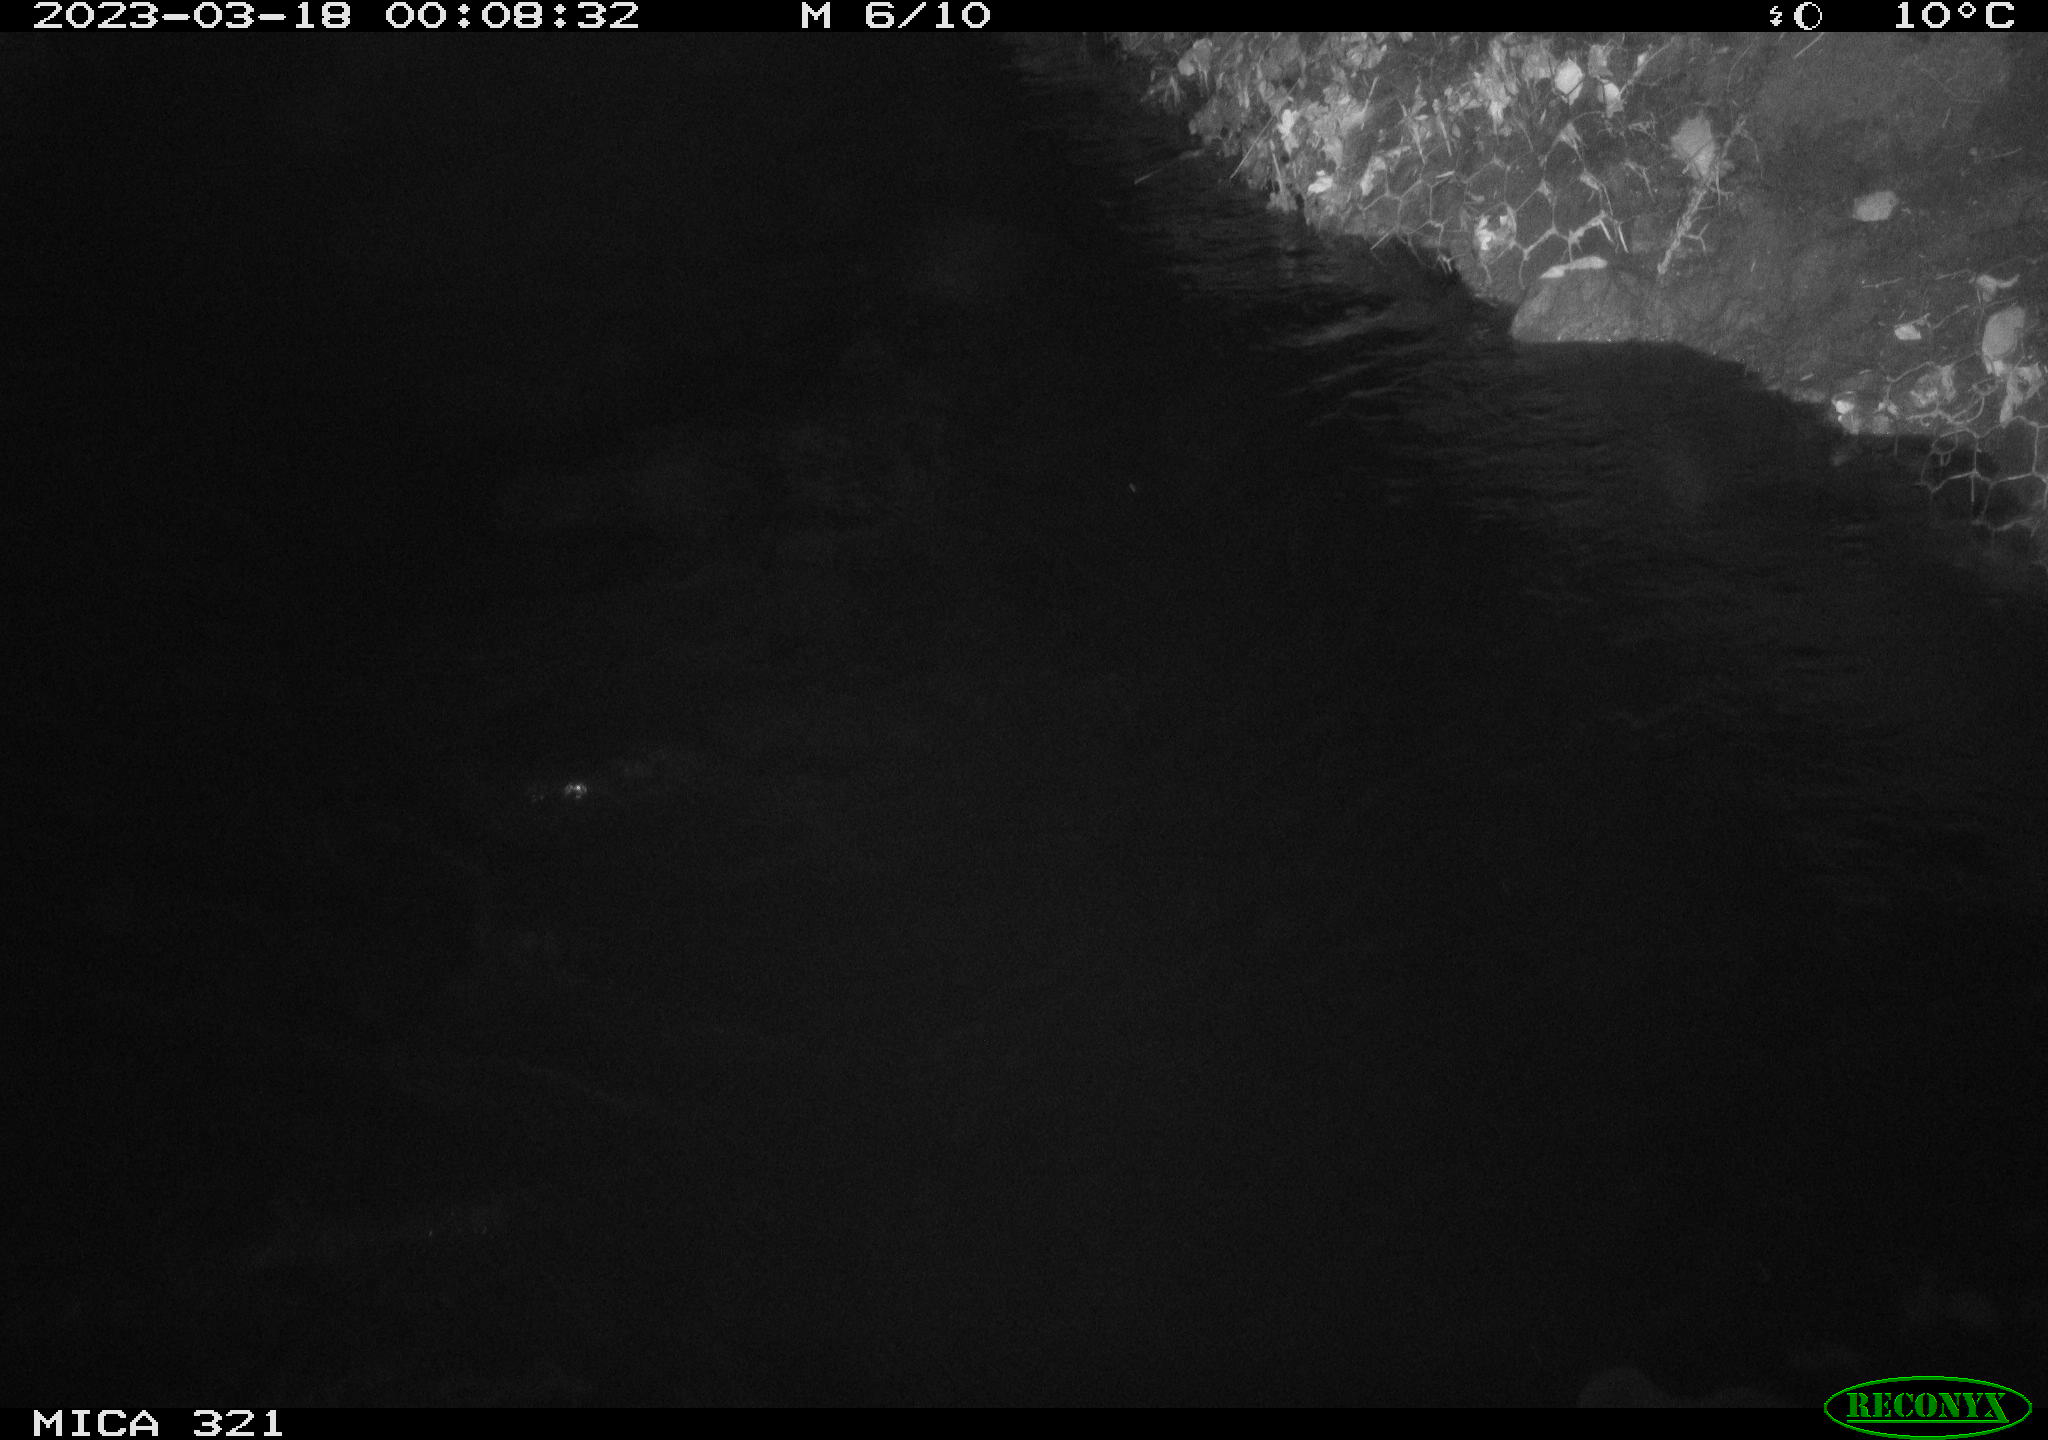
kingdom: Animalia
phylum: Chordata
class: Aves
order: Anseriformes
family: Anatidae
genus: Anas
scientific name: Anas
